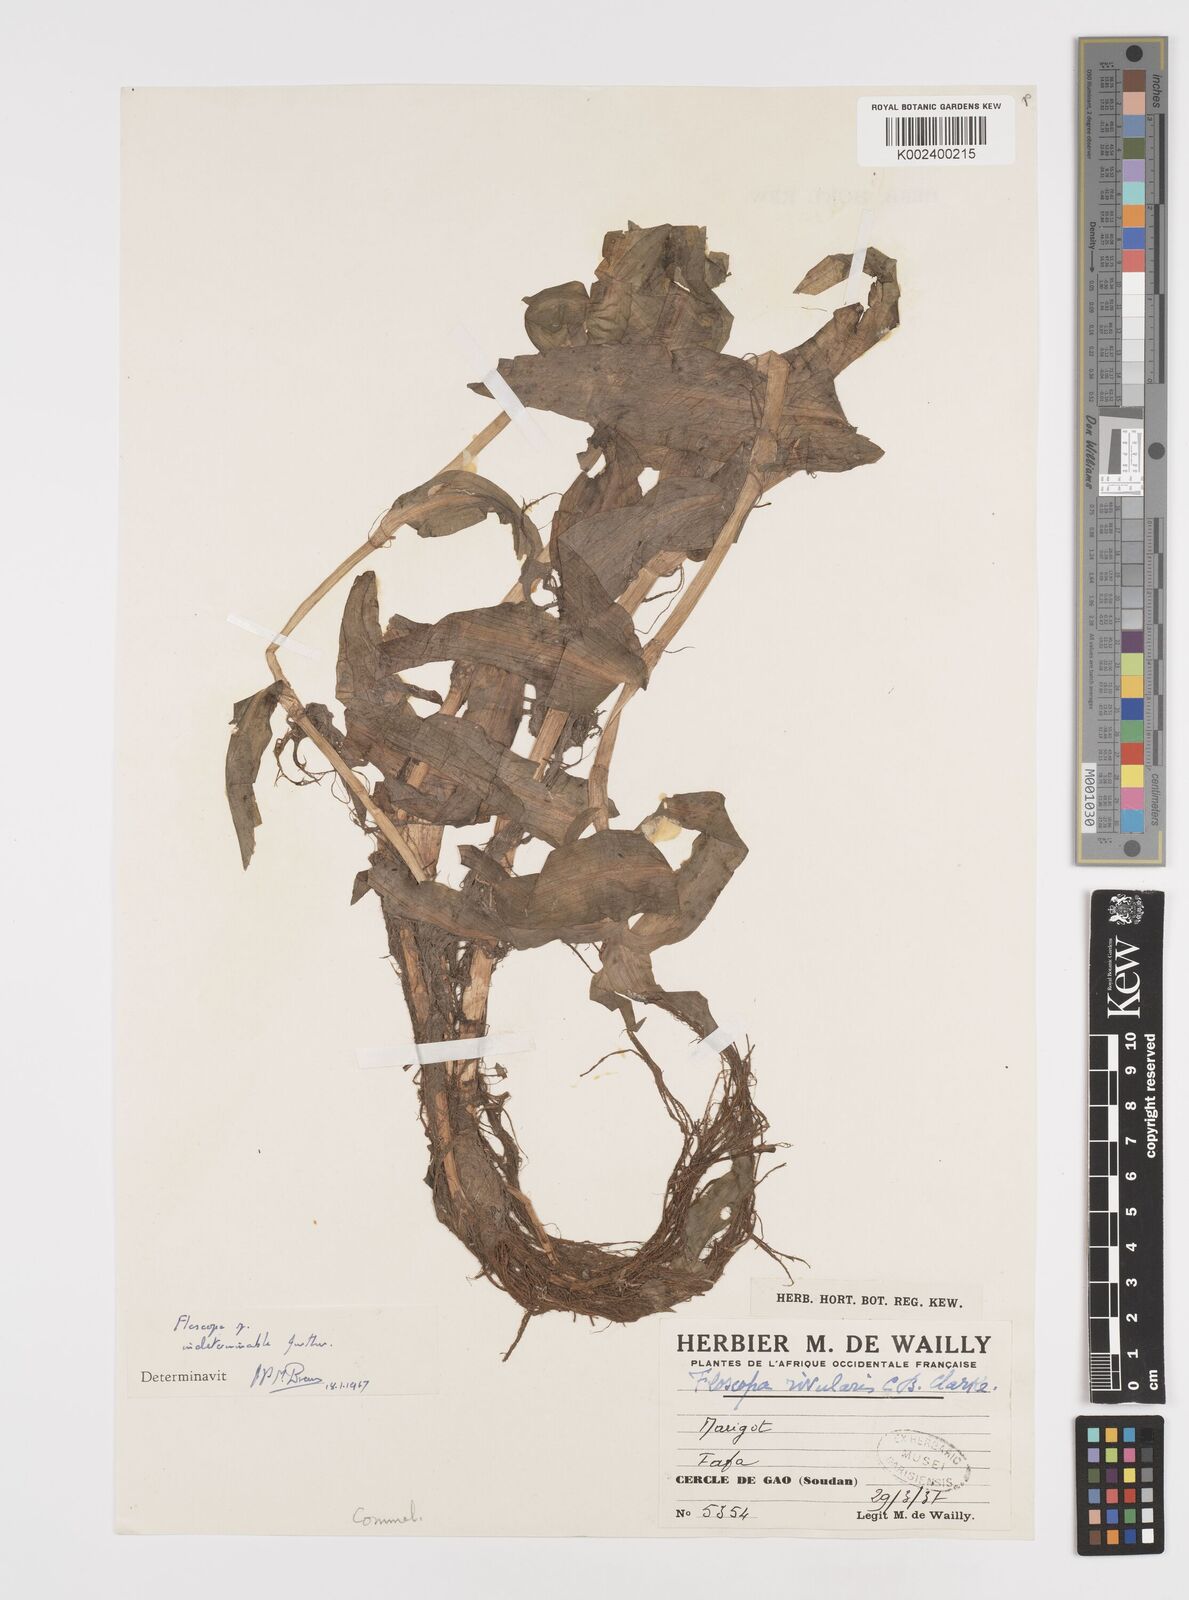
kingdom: Plantae
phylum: Tracheophyta
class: Liliopsida
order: Commelinales
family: Commelinaceae
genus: Floscopa
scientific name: Floscopa
